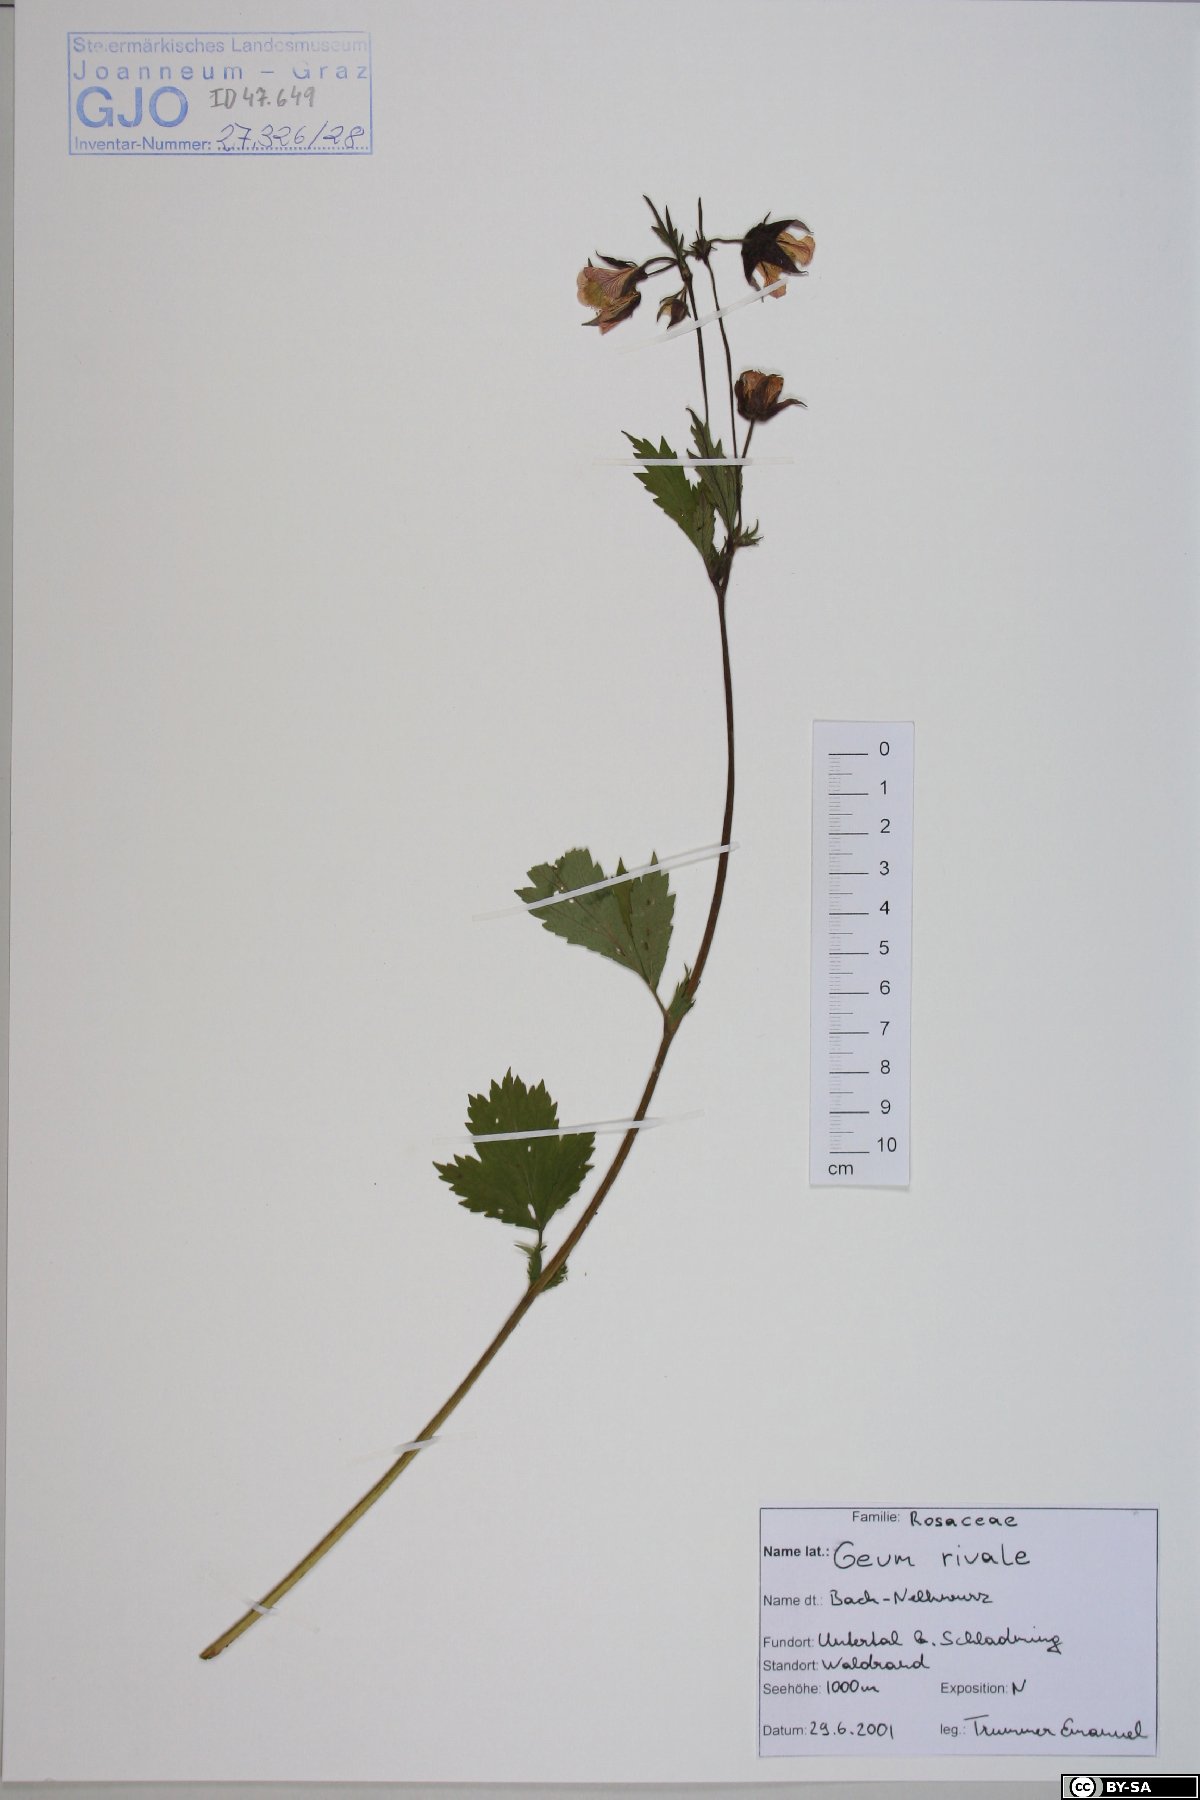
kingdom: Plantae
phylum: Tracheophyta
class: Magnoliopsida
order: Rosales
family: Rosaceae
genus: Geum
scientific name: Geum rivale
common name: Water avens
